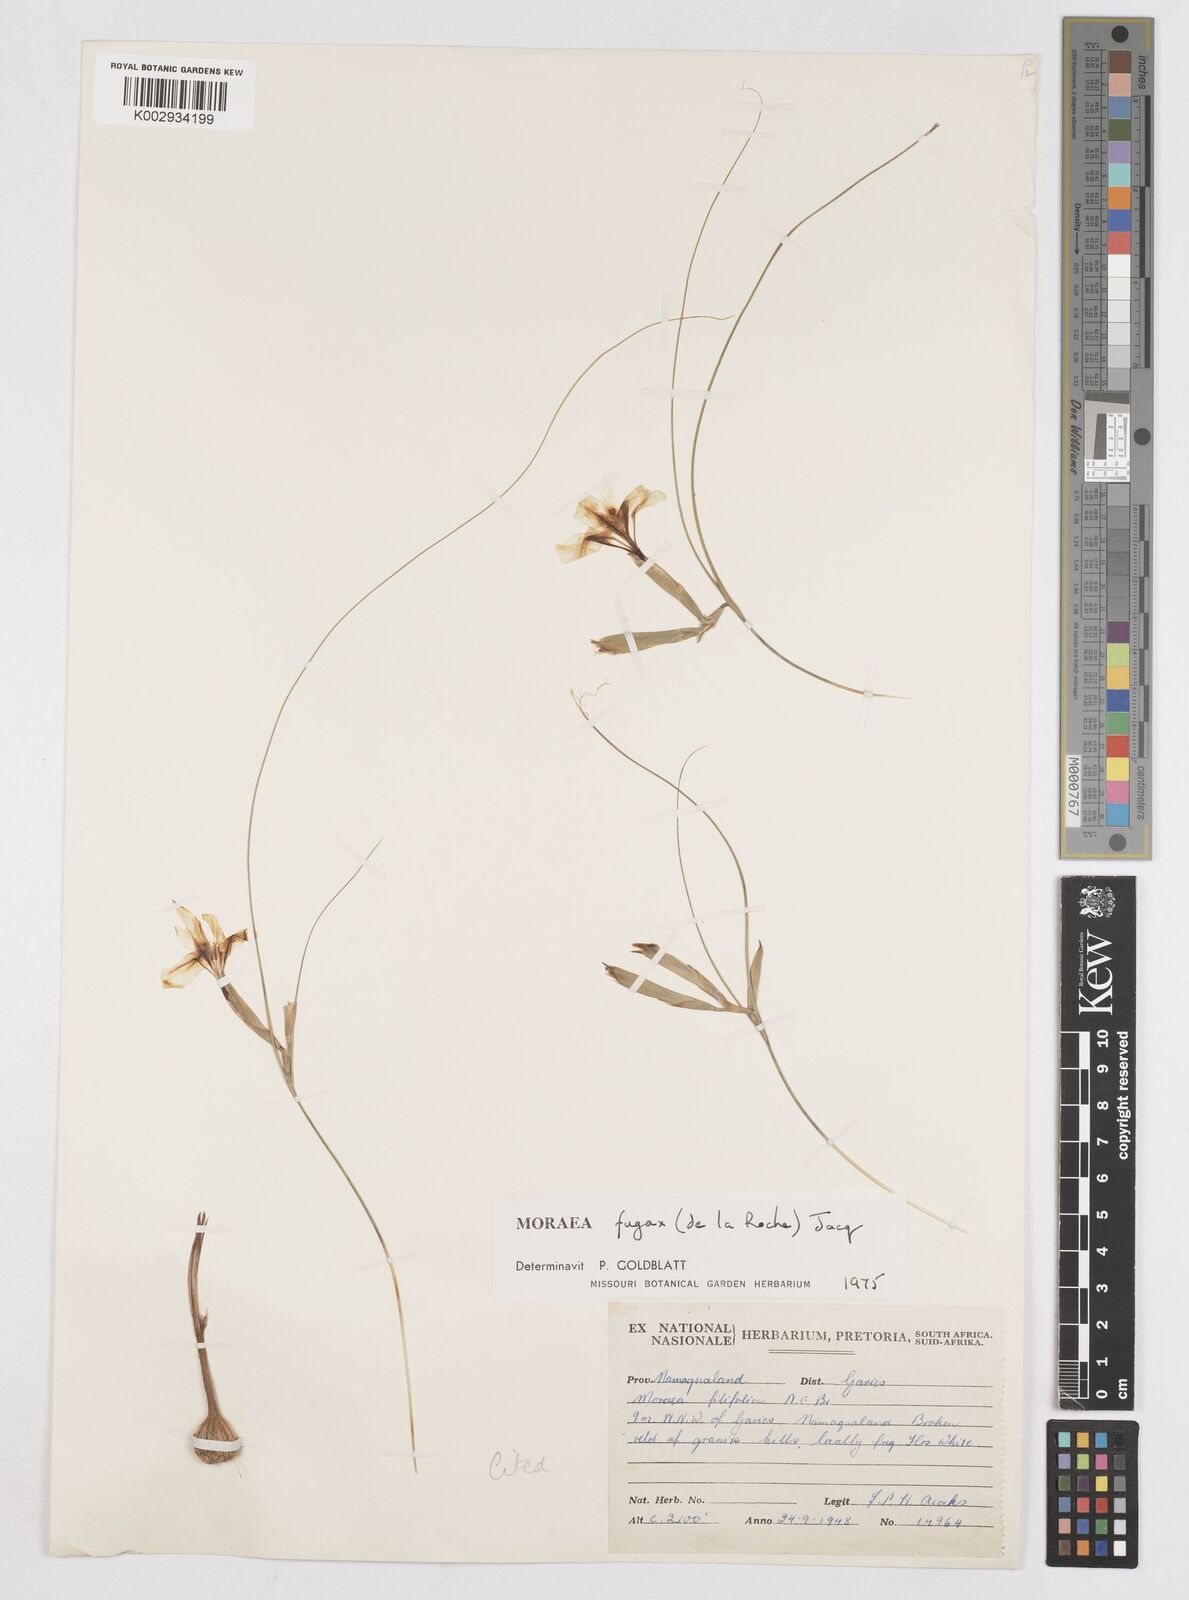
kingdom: Plantae
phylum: Tracheophyta
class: Liliopsida
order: Asparagales
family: Iridaceae
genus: Moraea
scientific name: Moraea fugax
